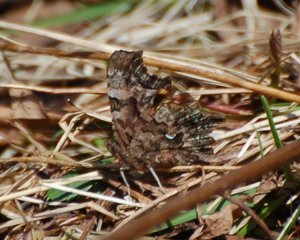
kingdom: Animalia
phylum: Arthropoda
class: Insecta
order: Lepidoptera
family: Nymphalidae
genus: Polygonia
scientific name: Polygonia faunus
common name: Green Comma
